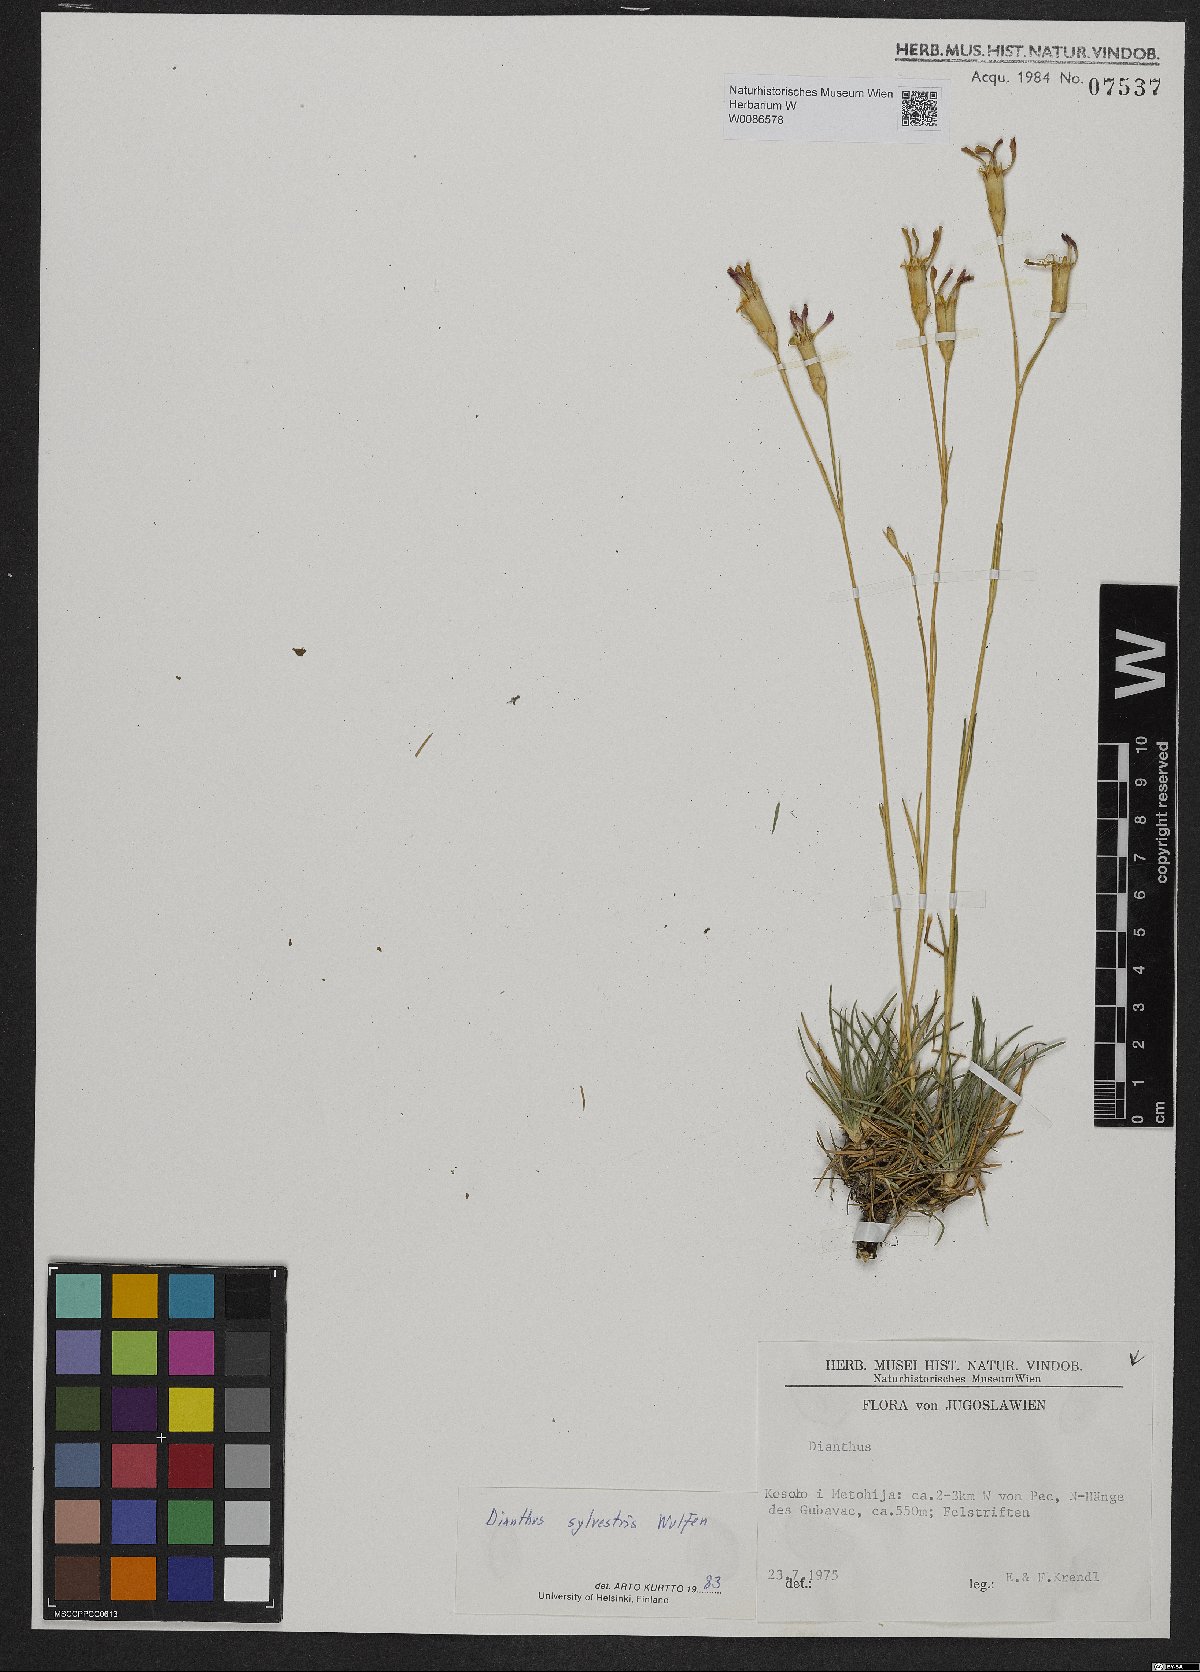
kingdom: Plantae
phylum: Tracheophyta
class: Magnoliopsida
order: Caryophyllales
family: Caryophyllaceae
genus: Dianthus
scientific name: Dianthus sylvestris
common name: Wood pink
